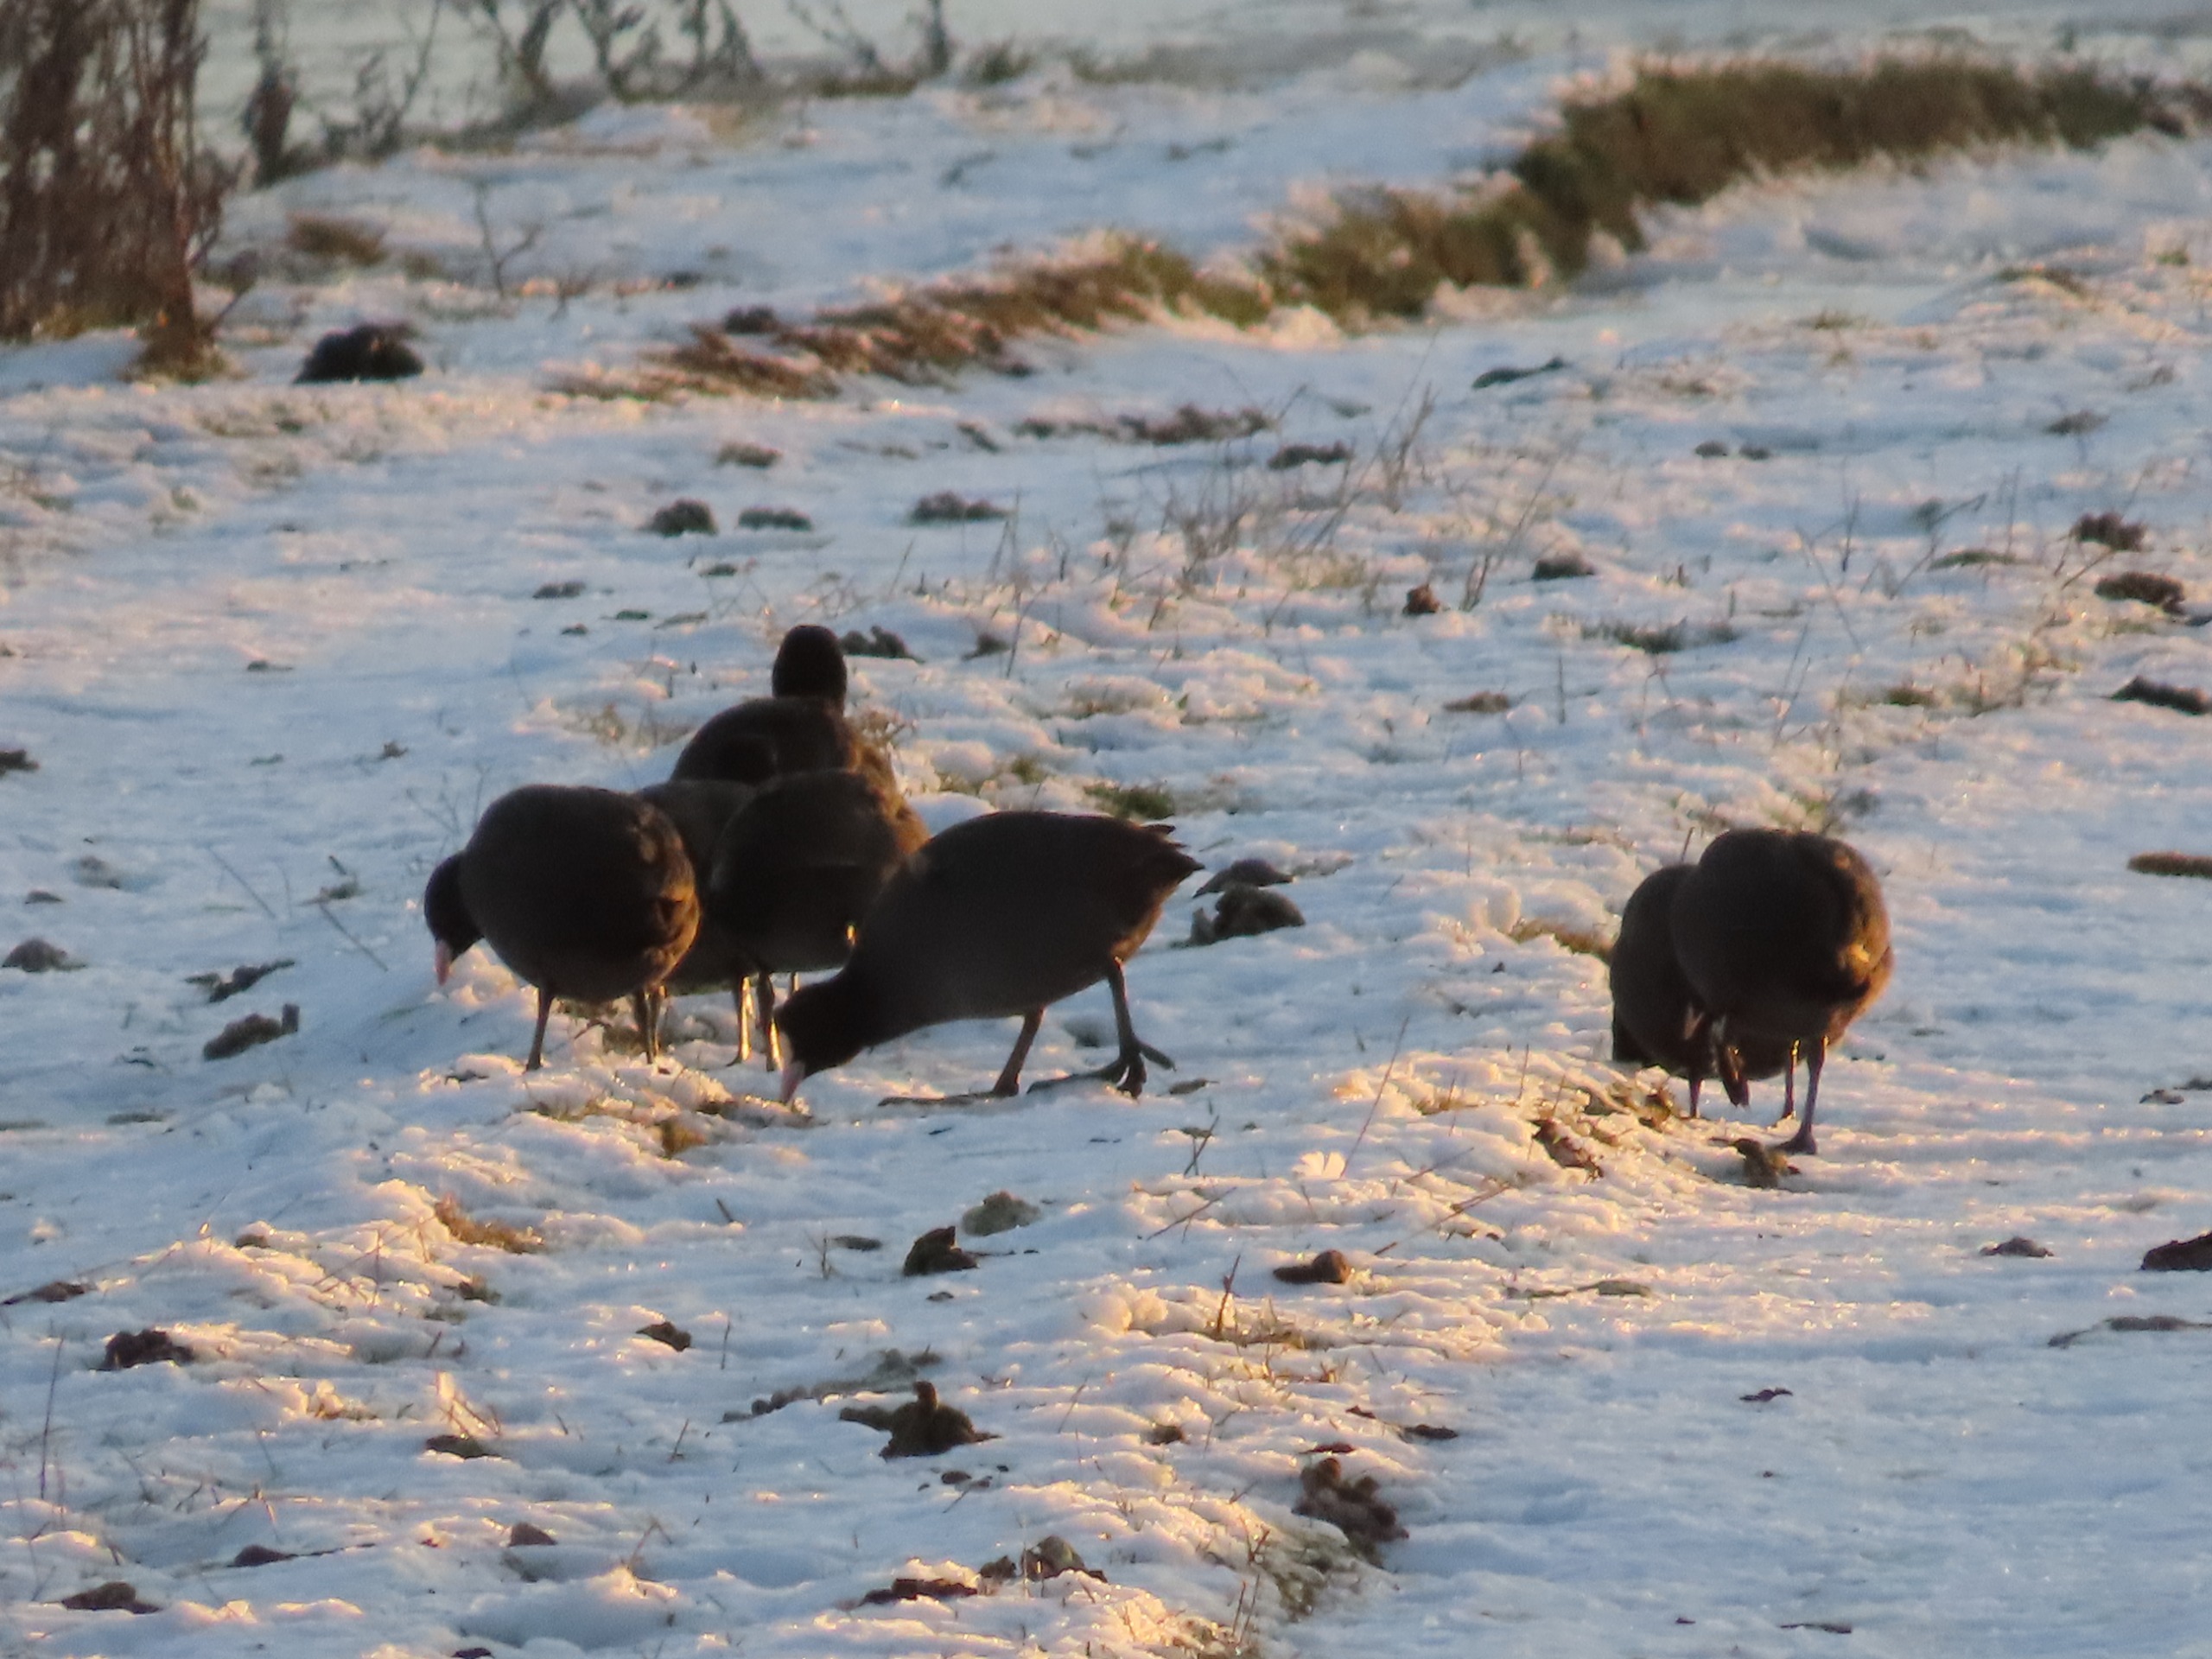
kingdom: Animalia
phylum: Chordata
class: Aves
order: Gruiformes
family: Rallidae
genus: Fulica
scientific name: Fulica atra
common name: Blishøne
